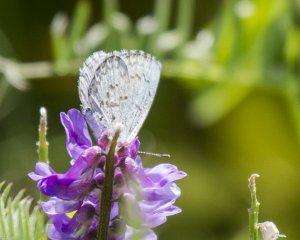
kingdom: Animalia
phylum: Arthropoda
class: Insecta
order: Lepidoptera
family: Lycaenidae
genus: Cyaniris
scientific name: Cyaniris neglecta
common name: Summer Azure
